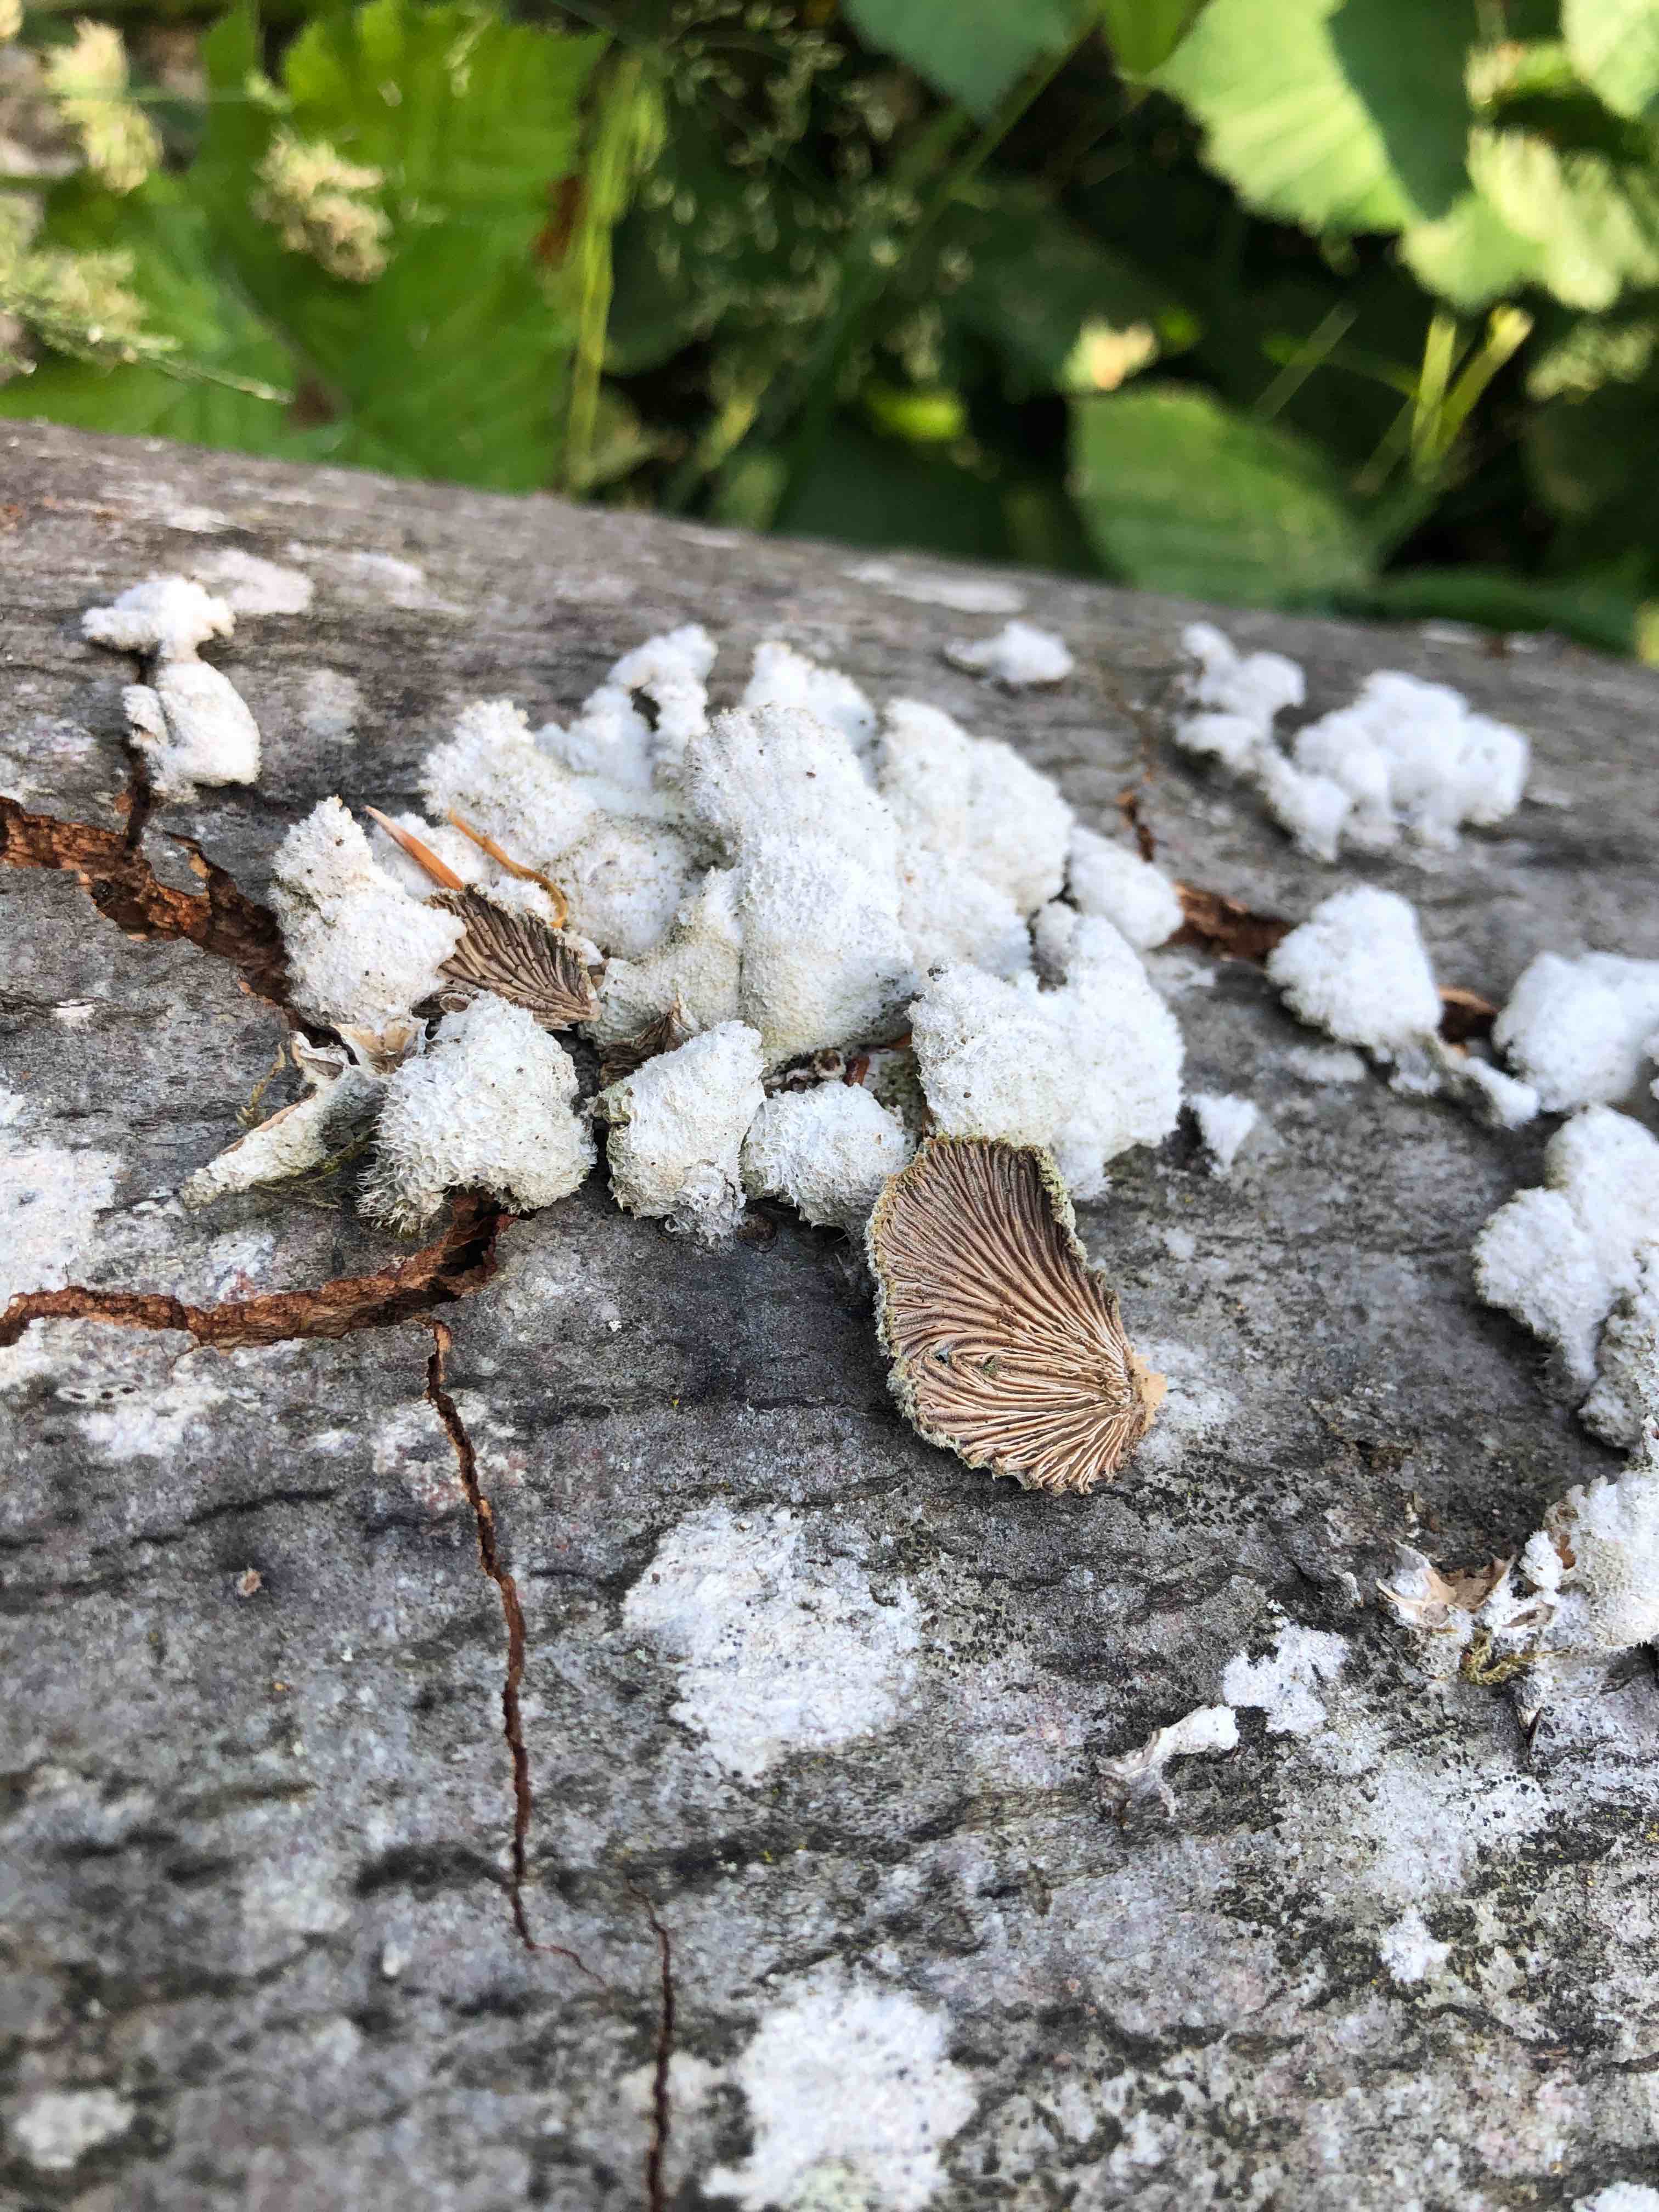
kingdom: Fungi
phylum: Basidiomycota
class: Agaricomycetes
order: Agaricales
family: Schizophyllaceae
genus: Schizophyllum
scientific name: Schizophyllum commune
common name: kløvblad
